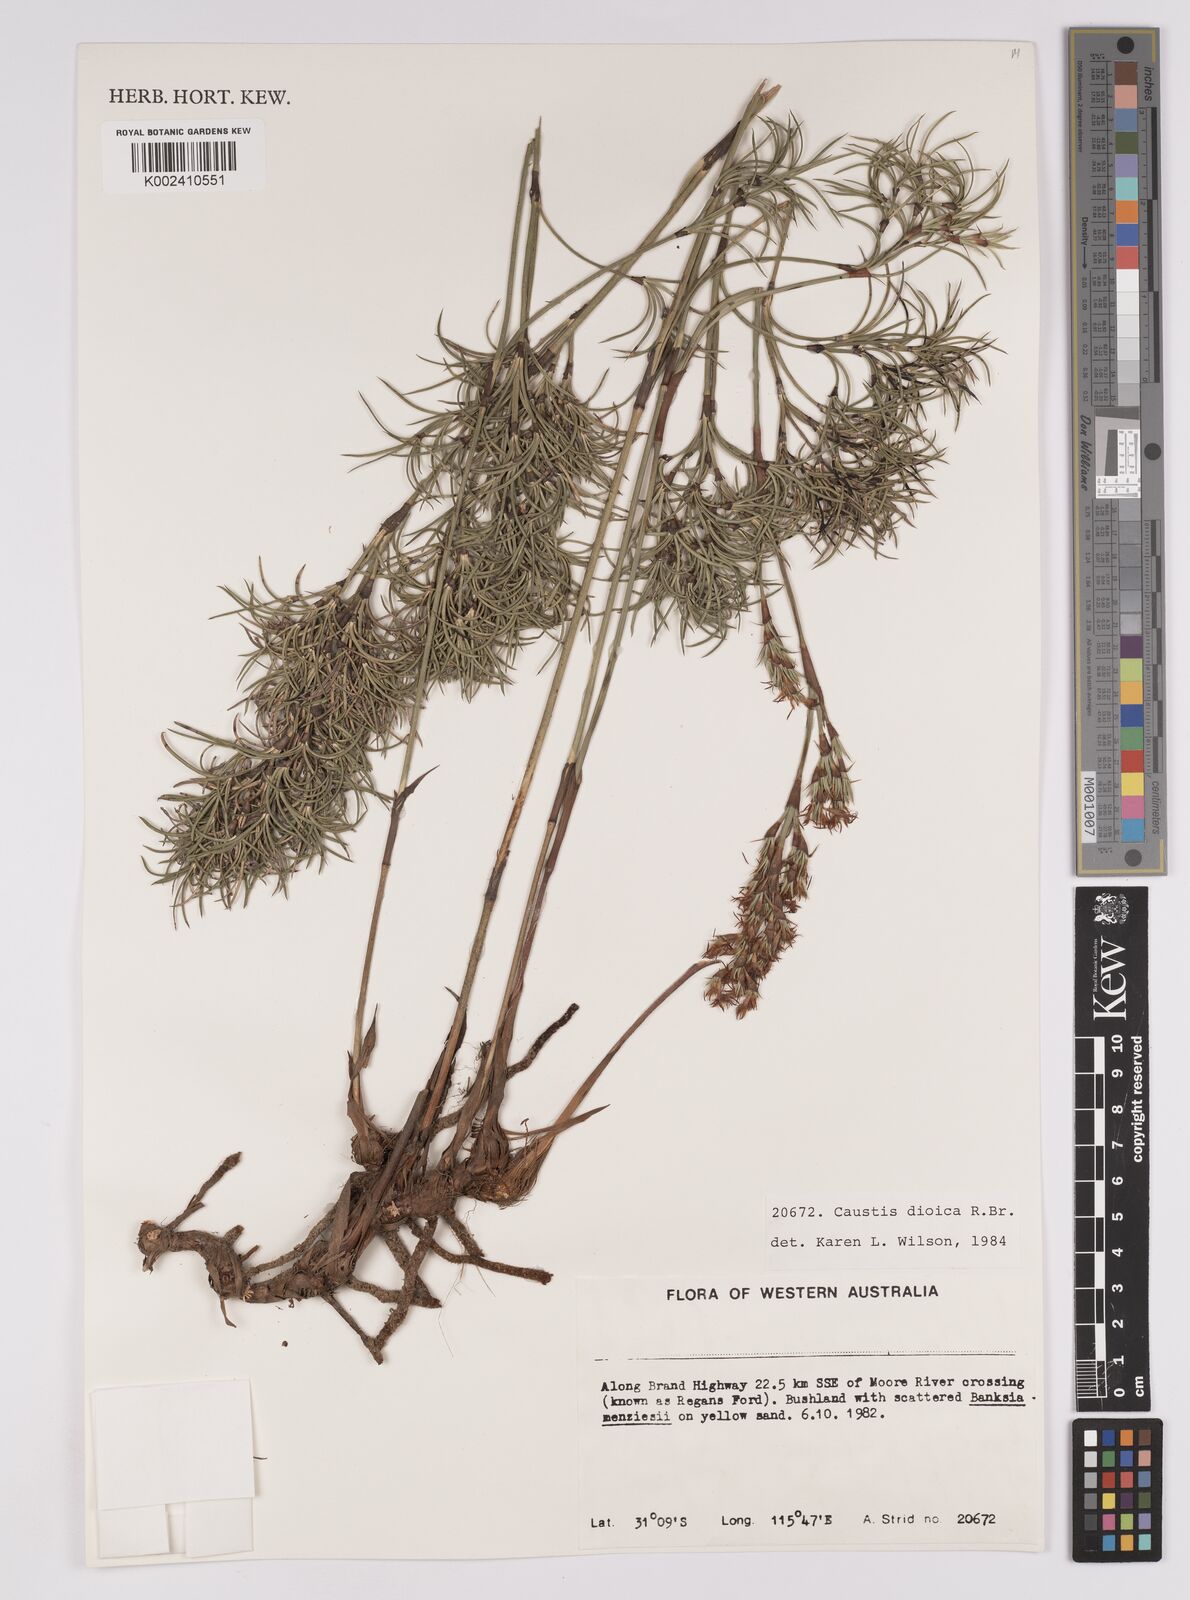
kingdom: Plantae
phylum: Tracheophyta
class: Liliopsida
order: Poales
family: Cyperaceae
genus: Caustis
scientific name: Caustis dioica
